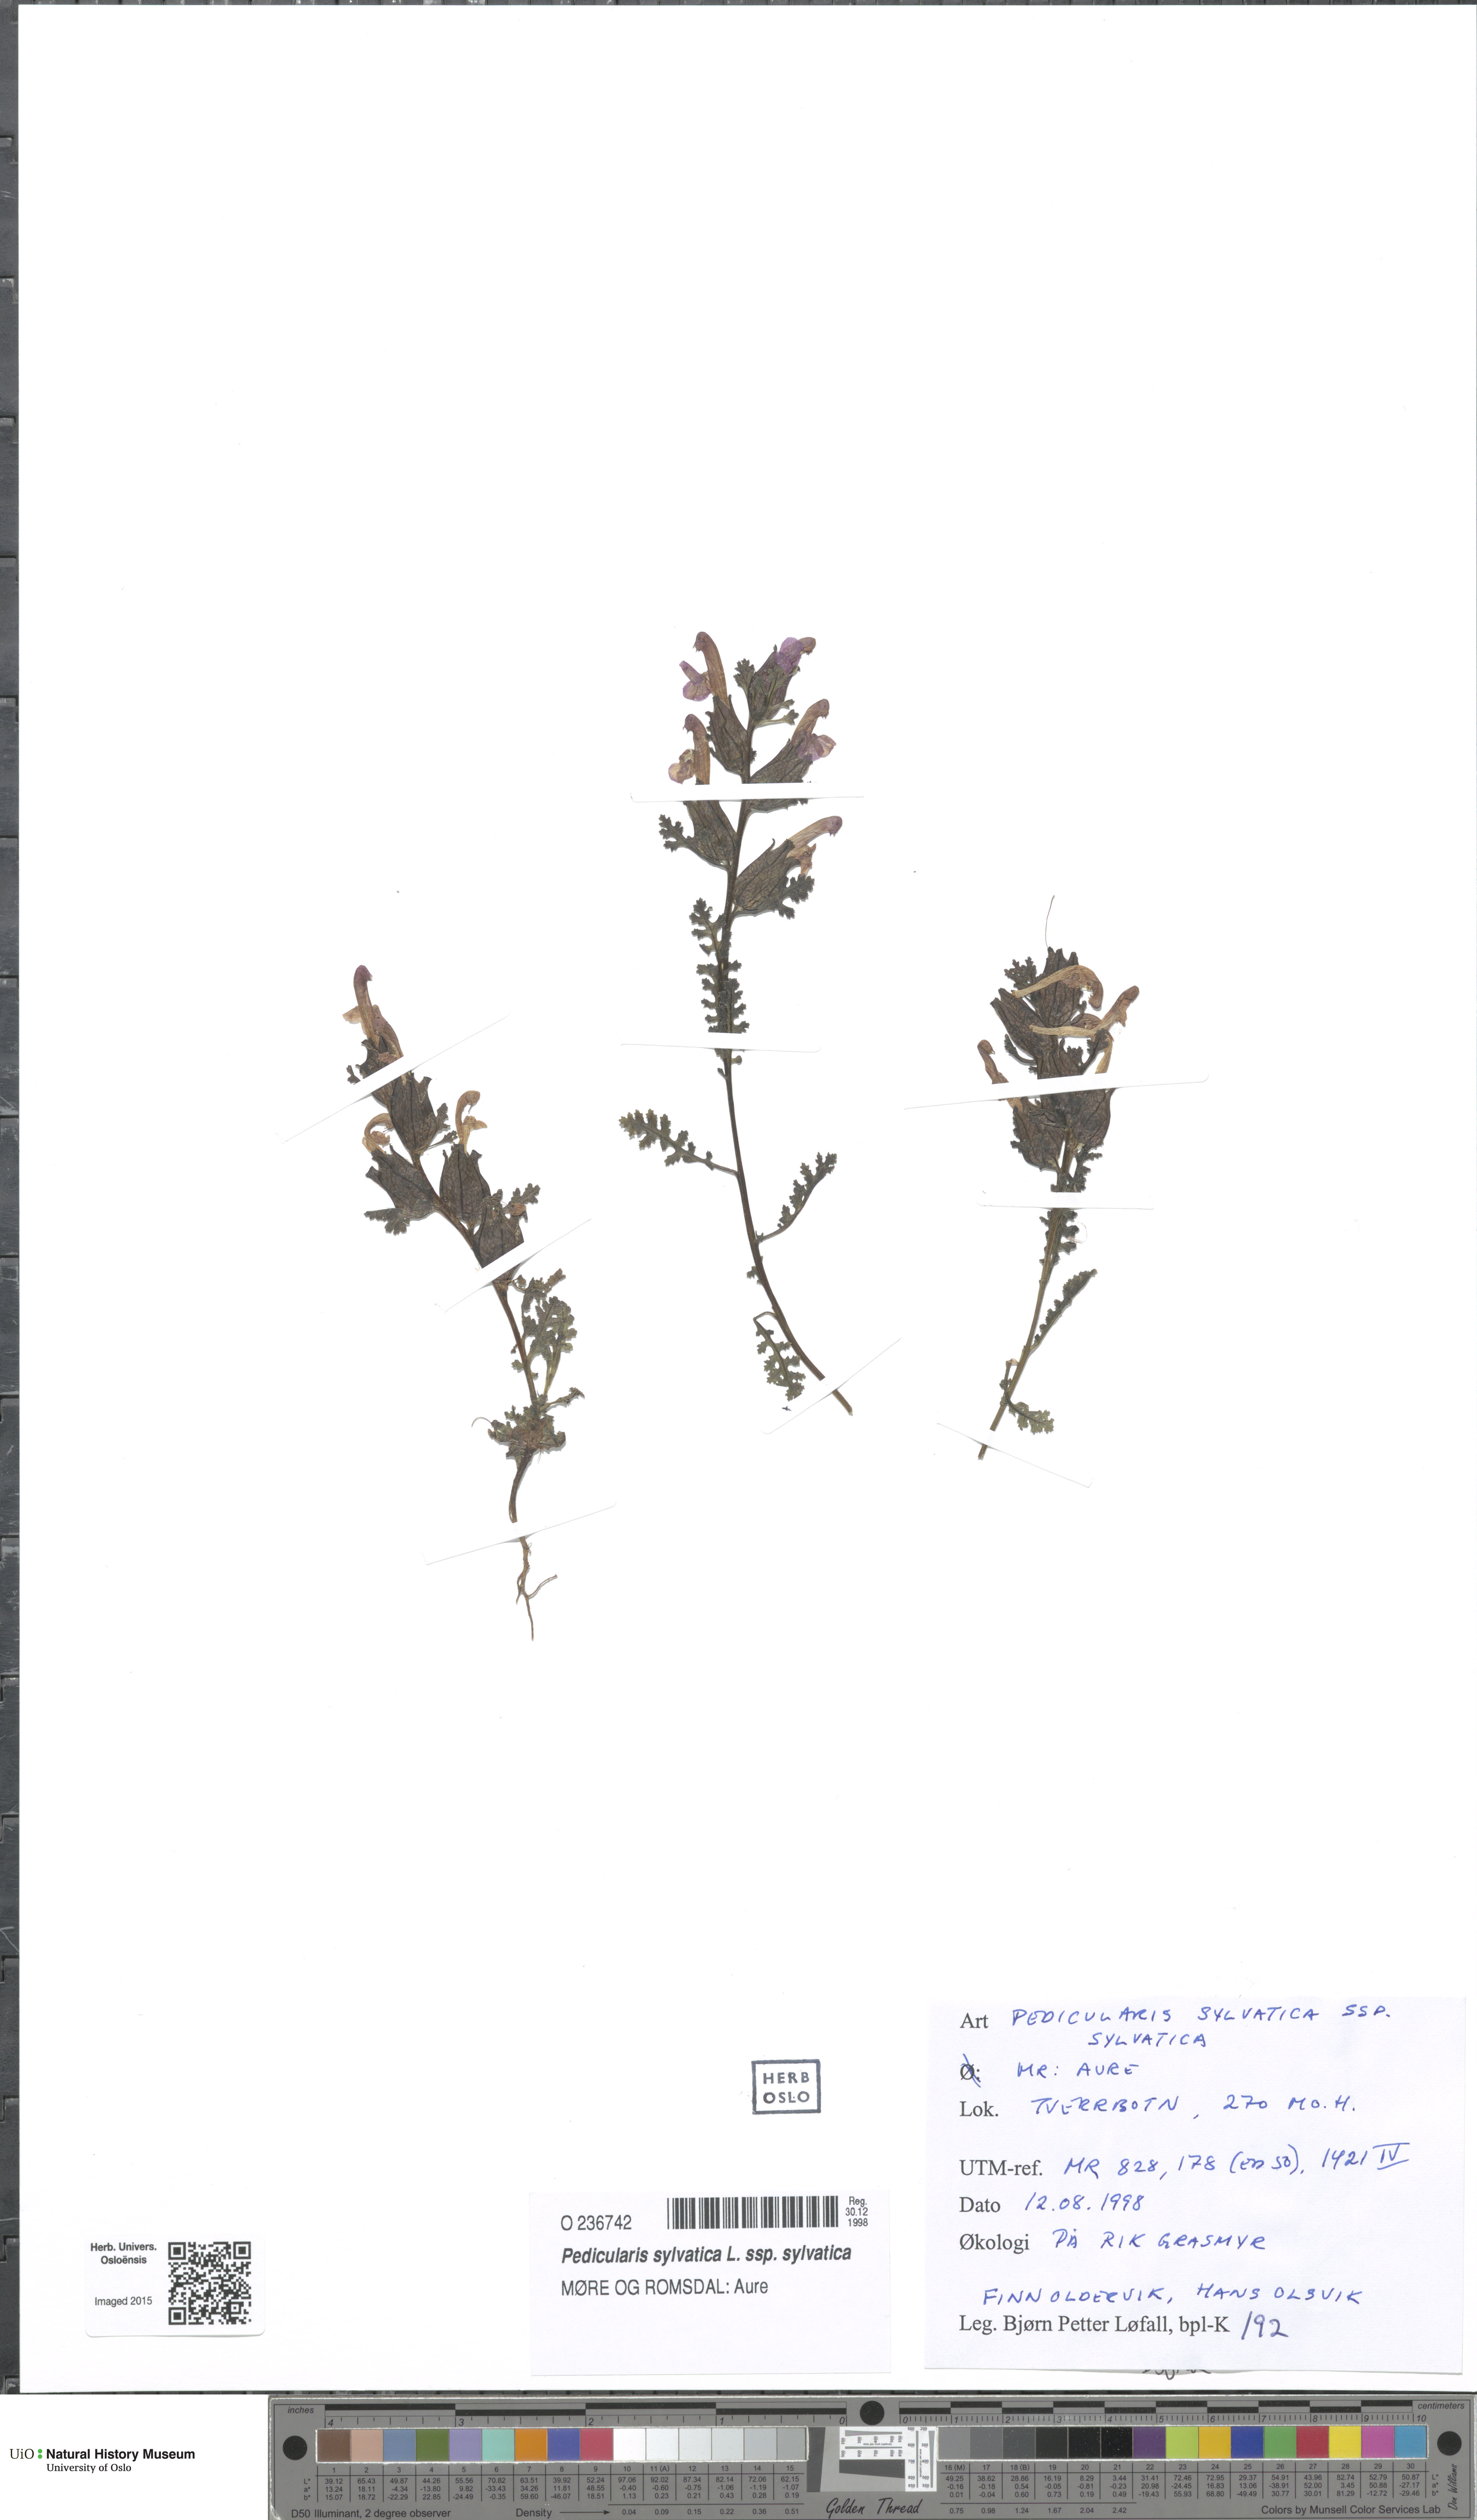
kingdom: Plantae
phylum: Tracheophyta
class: Magnoliopsida
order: Lamiales
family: Orobanchaceae
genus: Pedicularis
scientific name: Pedicularis sylvatica
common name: Lousewort
